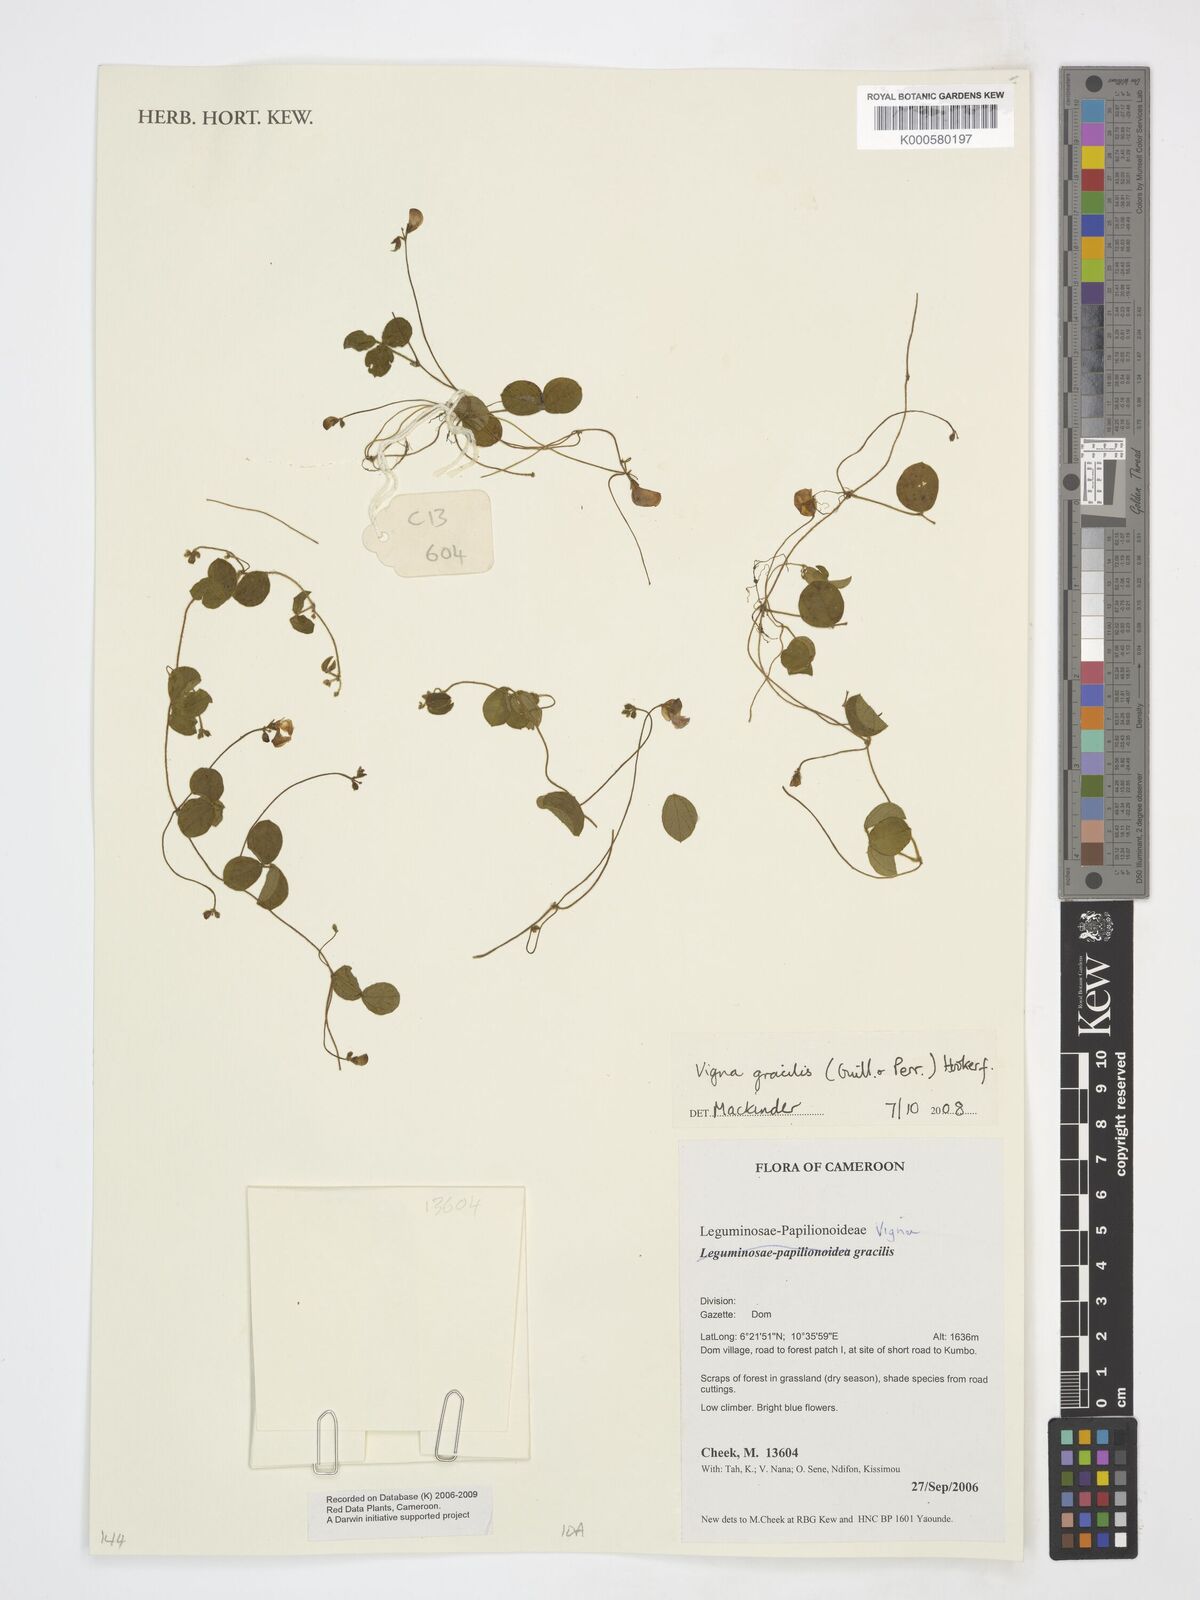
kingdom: Plantae
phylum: Tracheophyta
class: Magnoliopsida
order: Fabales
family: Fabaceae
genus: Vigna
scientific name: Vigna gracilis
